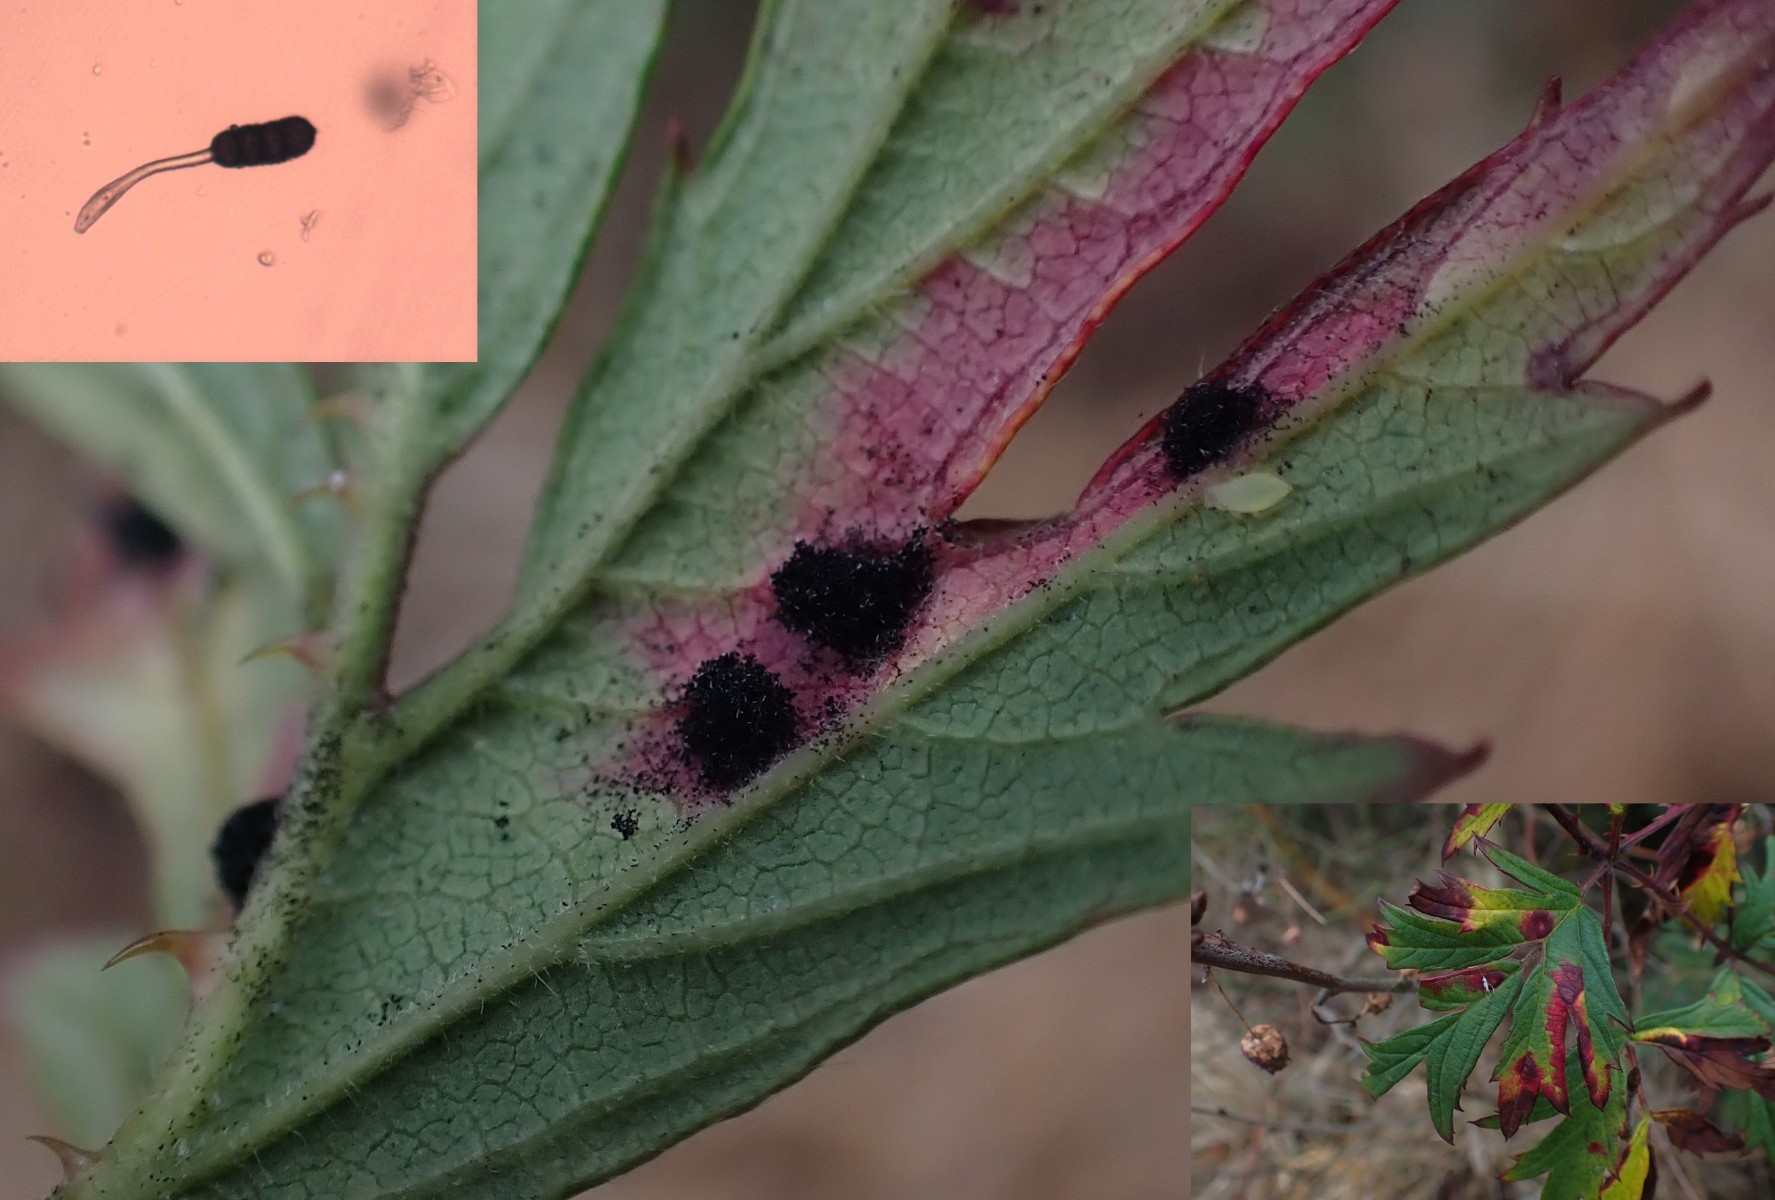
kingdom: Fungi
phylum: Basidiomycota
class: Pucciniomycetes
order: Pucciniales
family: Phragmidiaceae
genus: Phragmidium
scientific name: Phragmidium violaceum
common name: violet flercellerust
